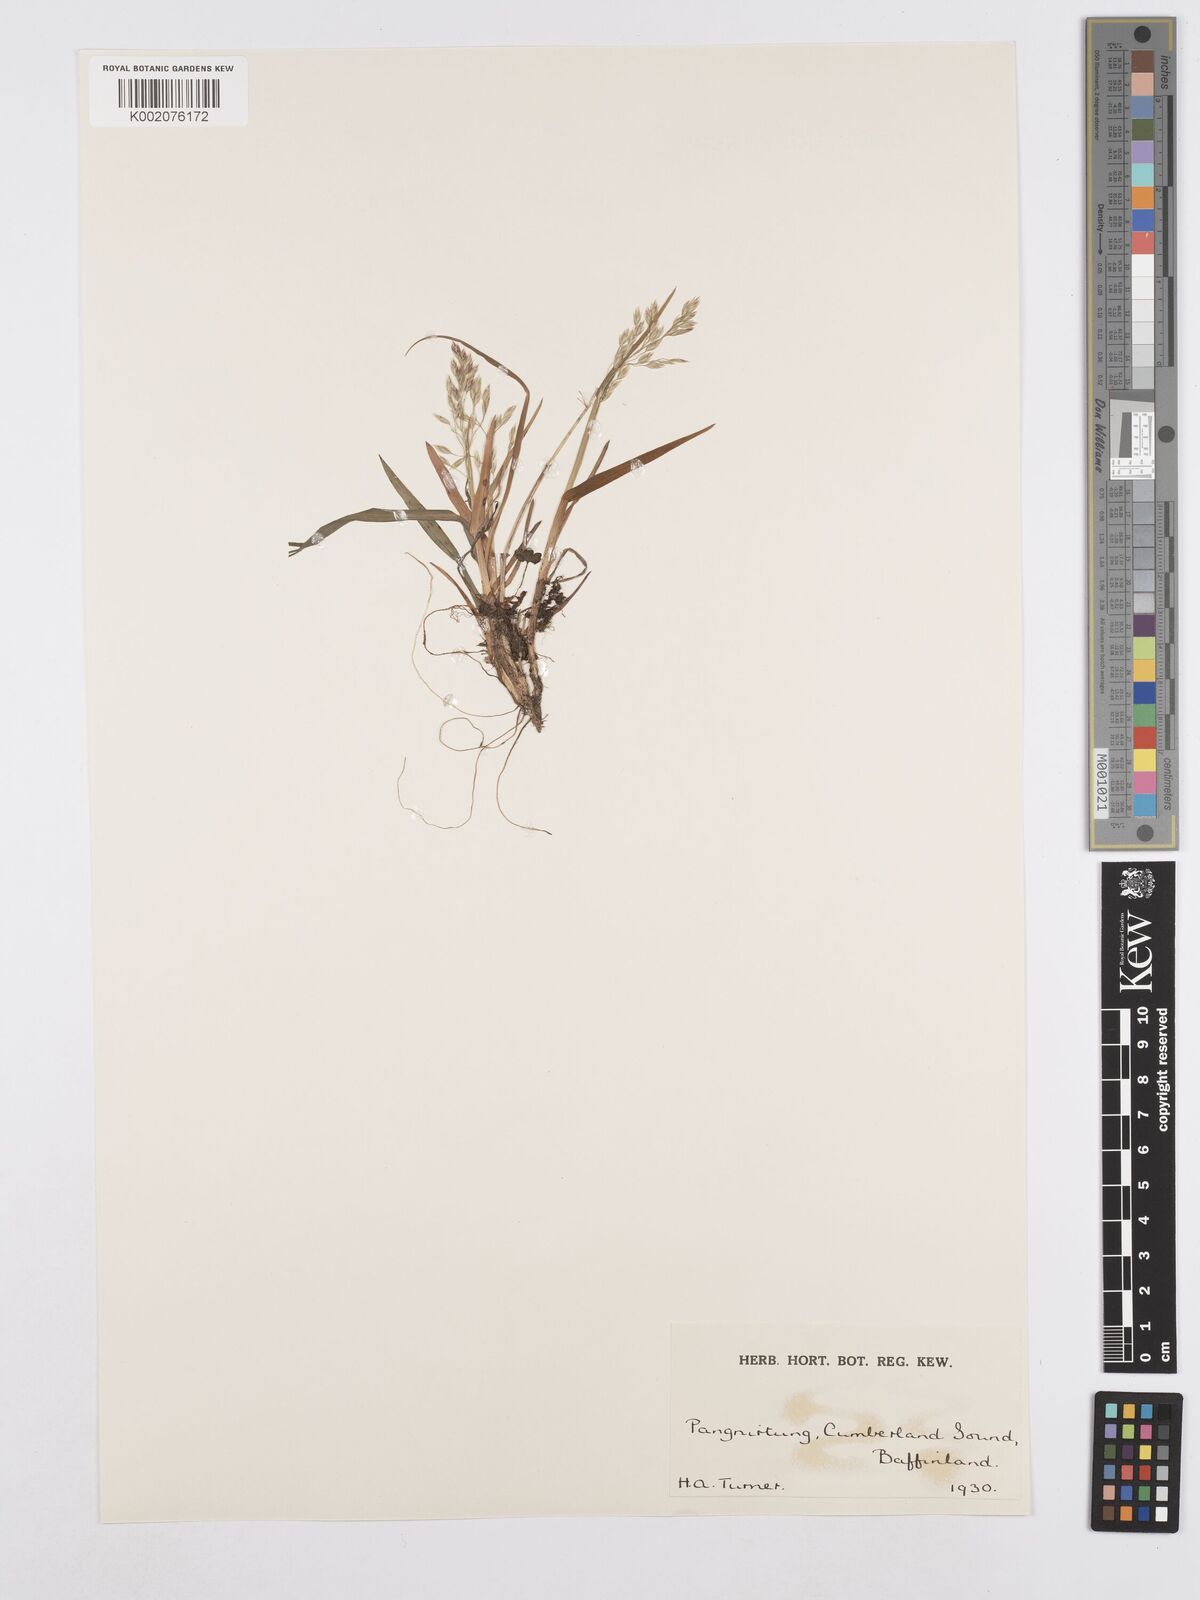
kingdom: Plantae
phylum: Tracheophyta
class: Liliopsida
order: Poales
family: Poaceae
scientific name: Poaceae
